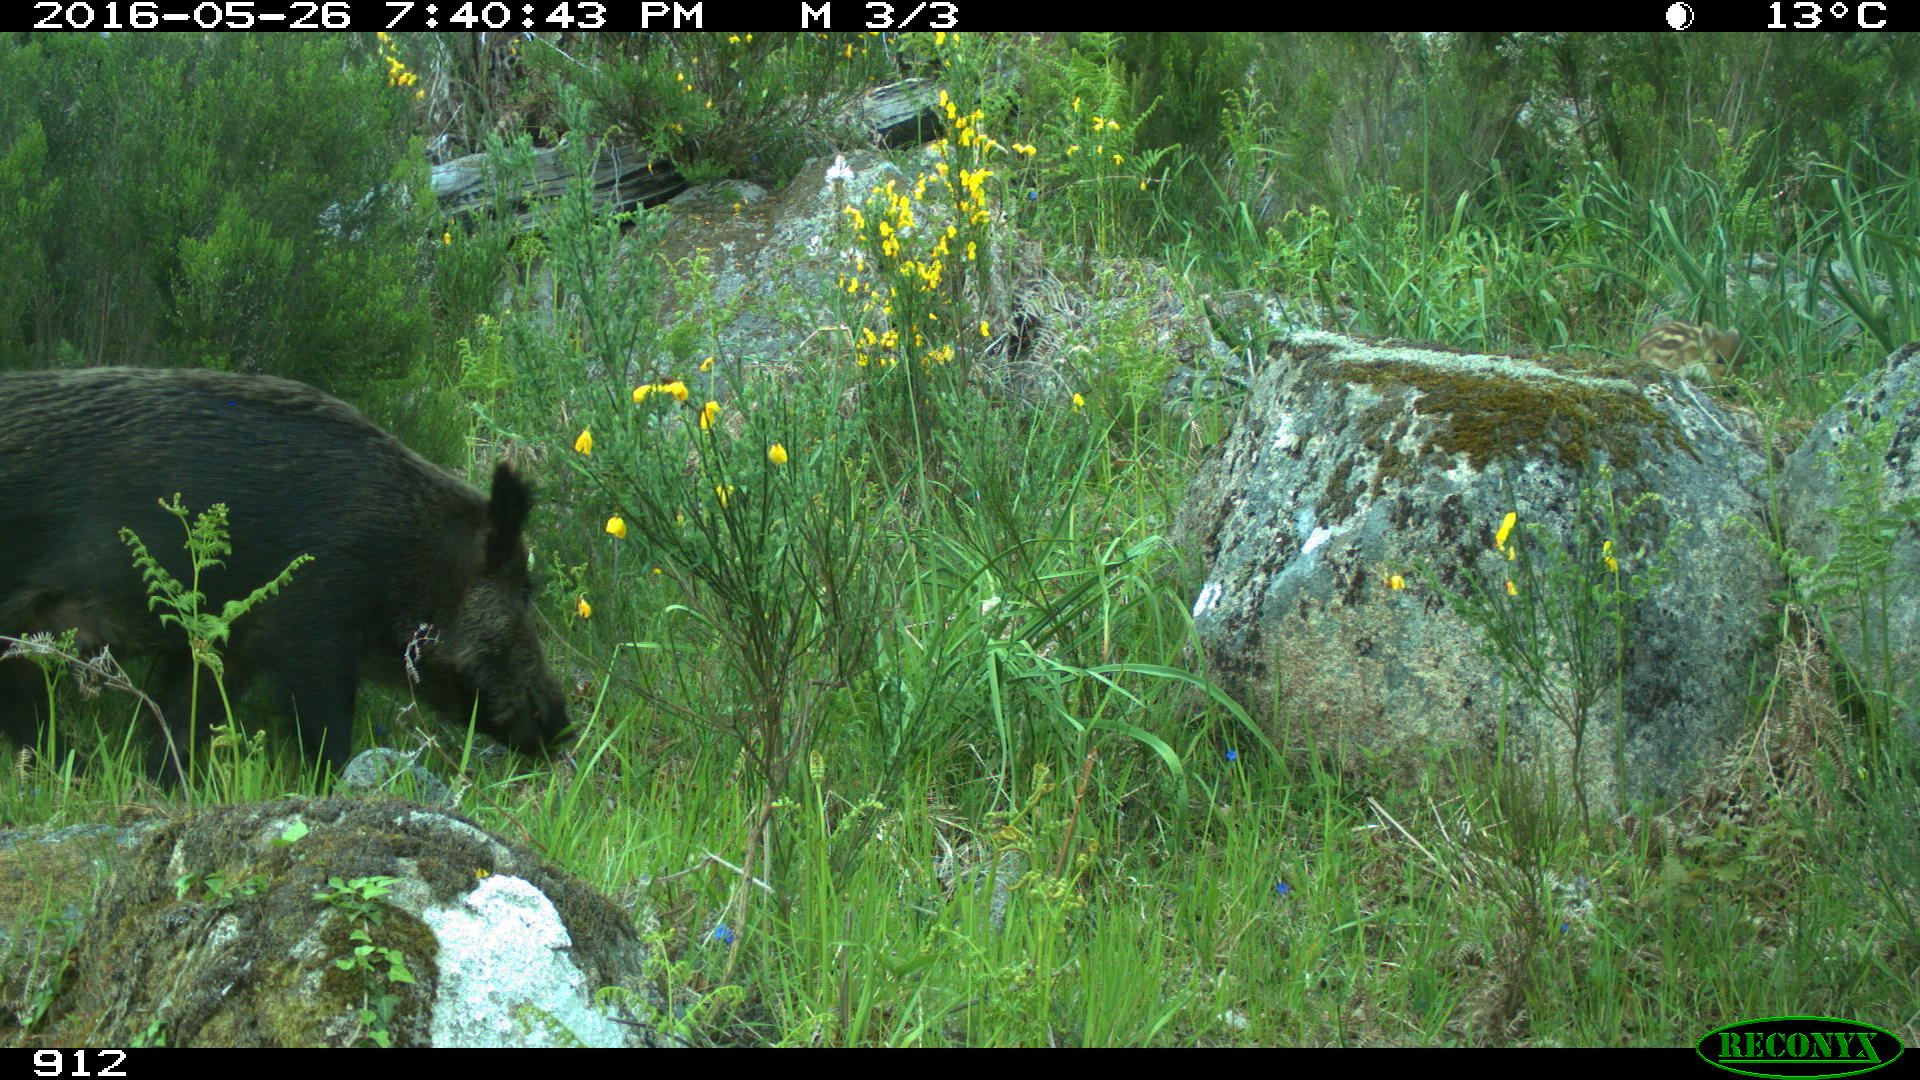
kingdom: Animalia
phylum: Chordata
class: Mammalia
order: Artiodactyla
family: Suidae
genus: Sus
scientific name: Sus scrofa
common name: Wild boar
